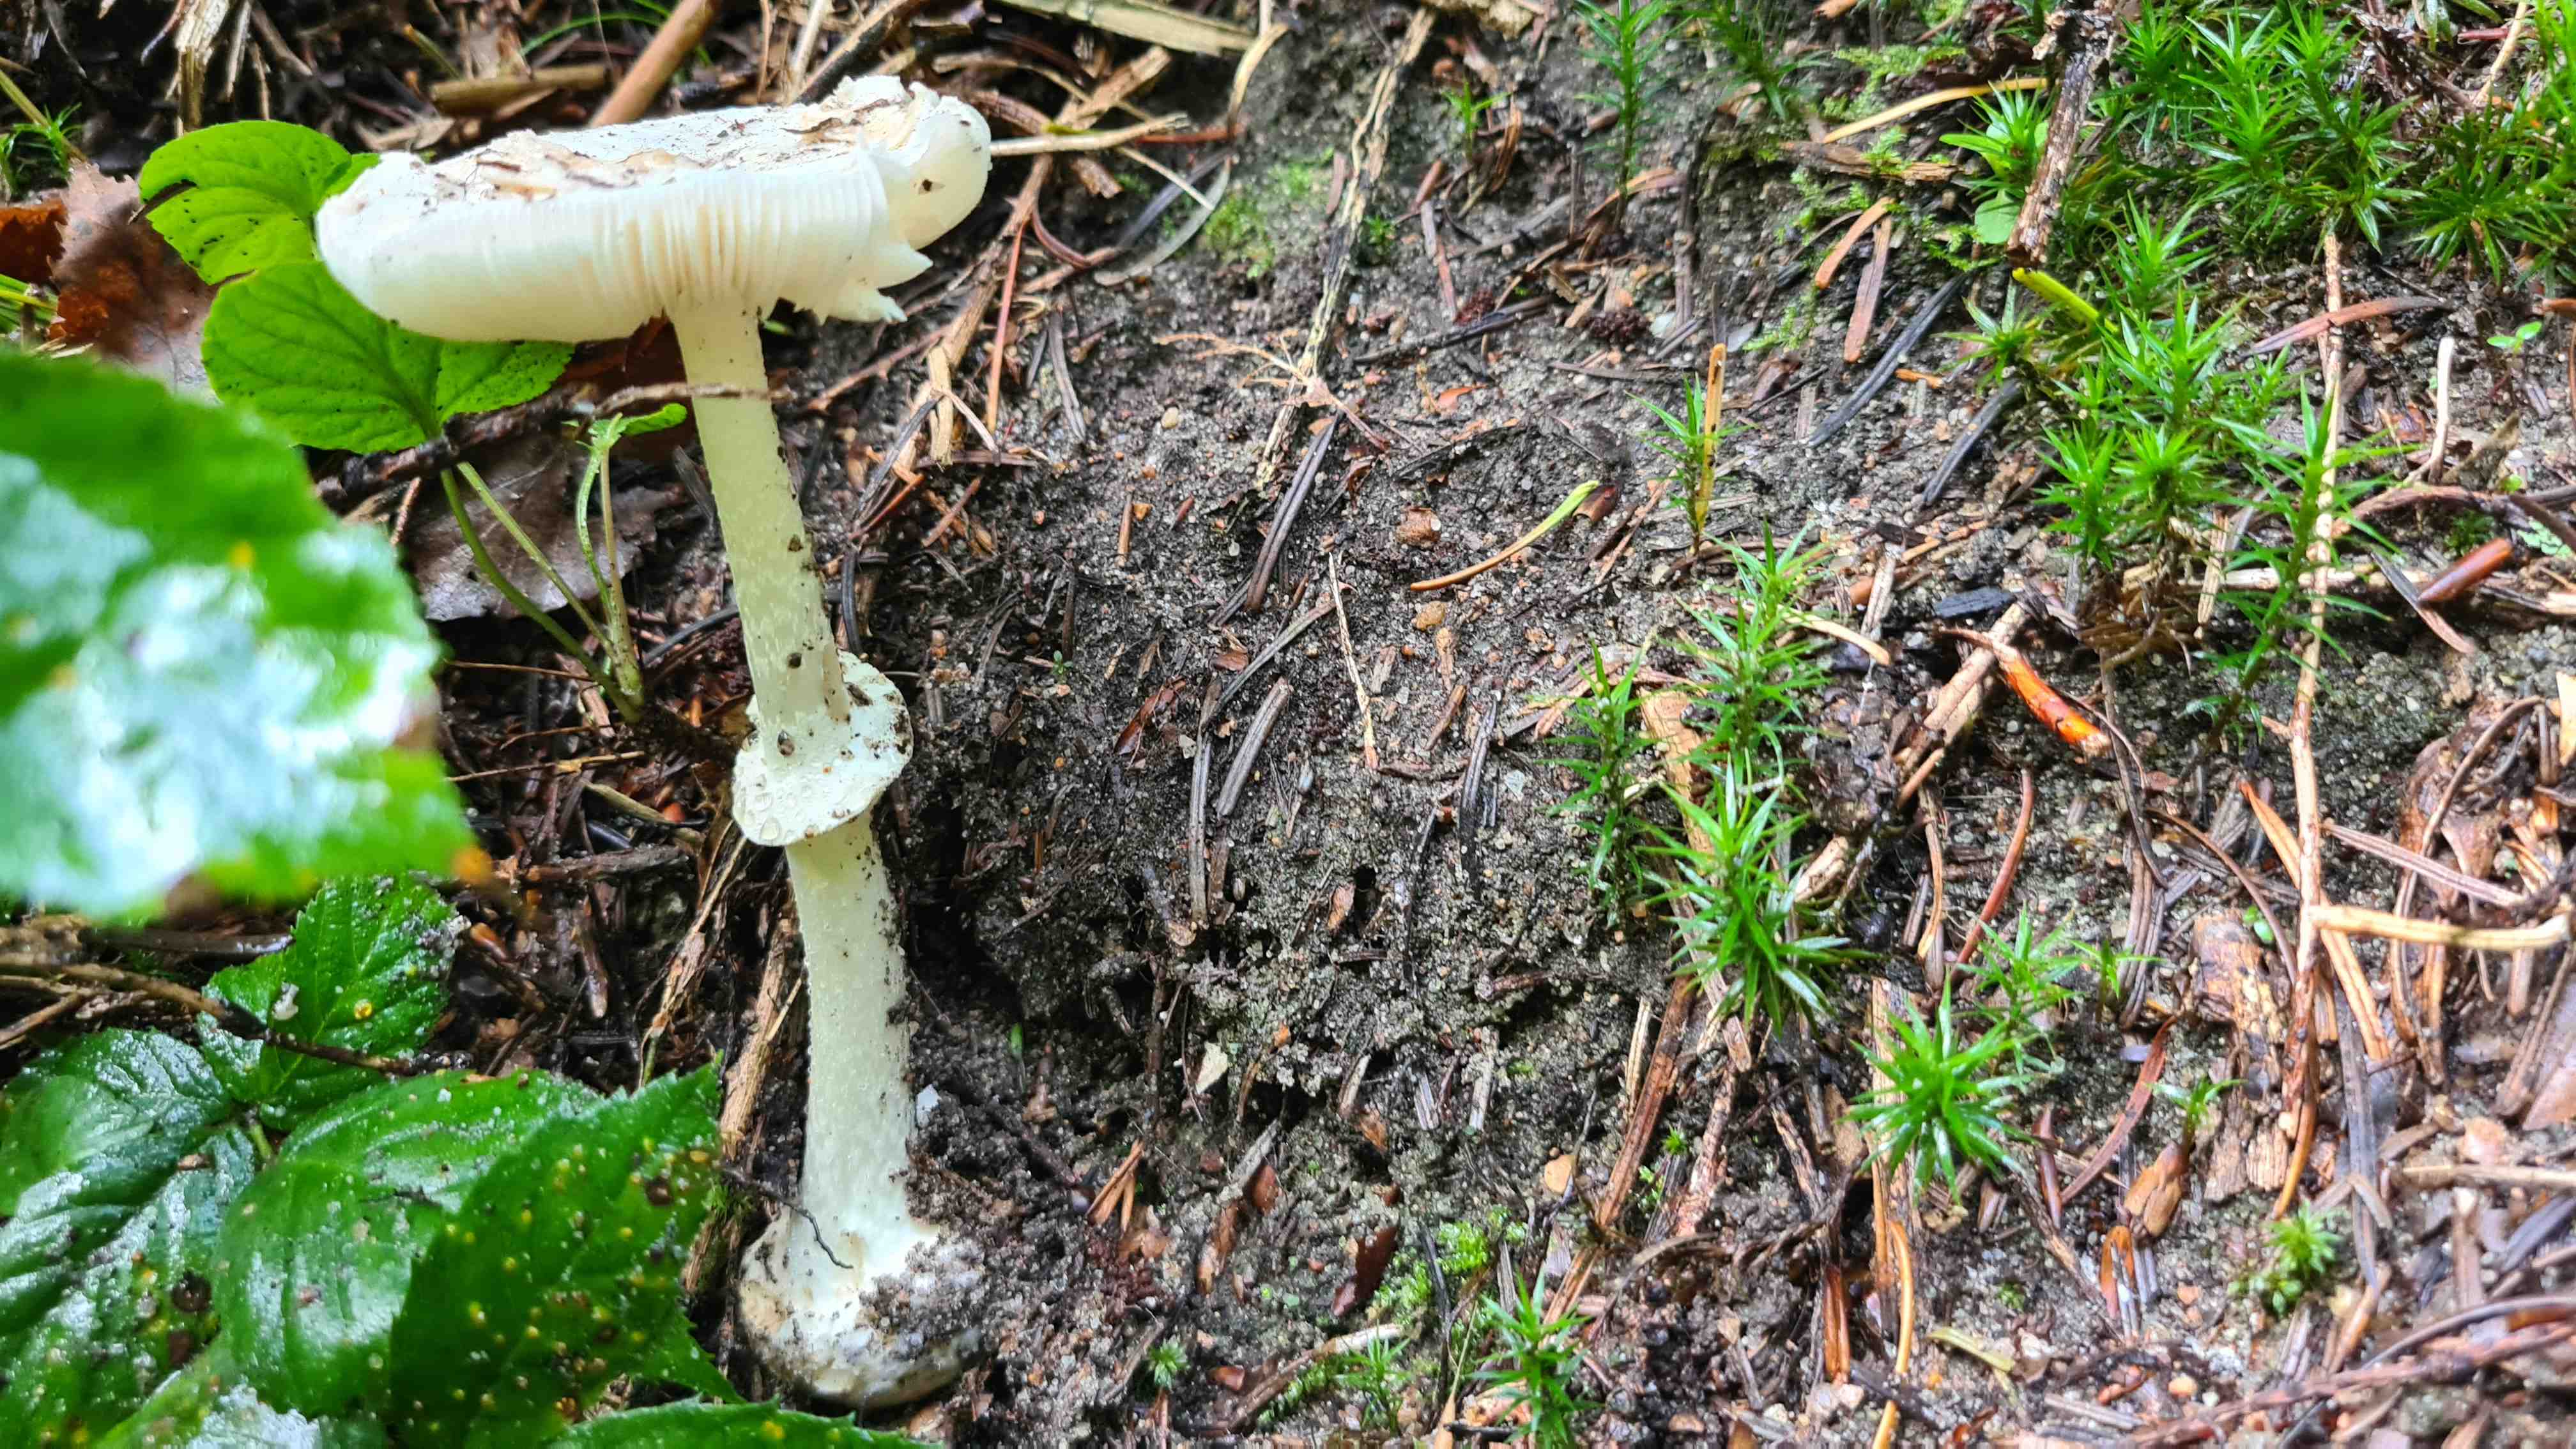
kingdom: Fungi
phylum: Basidiomycota
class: Agaricomycetes
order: Agaricales
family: Amanitaceae
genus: Amanita
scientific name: Amanita citrina
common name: False death-cap
